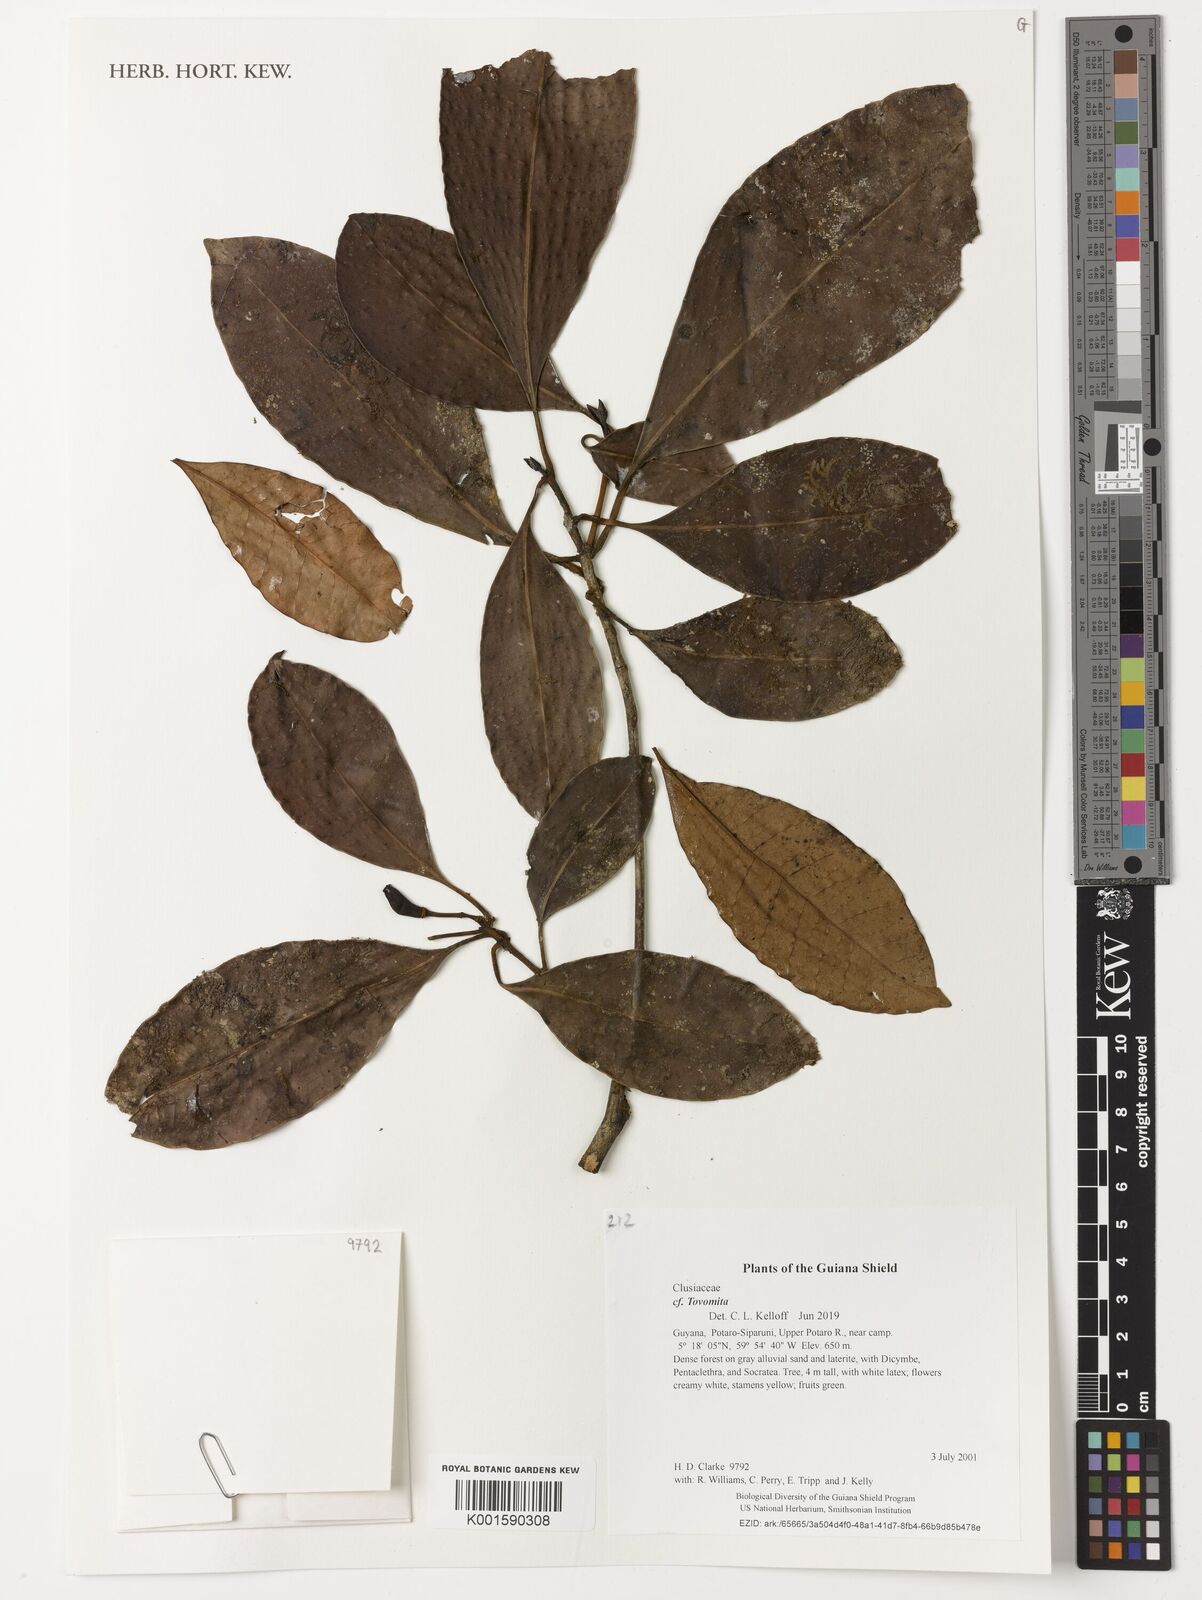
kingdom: Plantae
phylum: Tracheophyta
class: Magnoliopsida
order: Malpighiales
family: Clusiaceae
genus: Tovomita
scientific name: Tovomita
